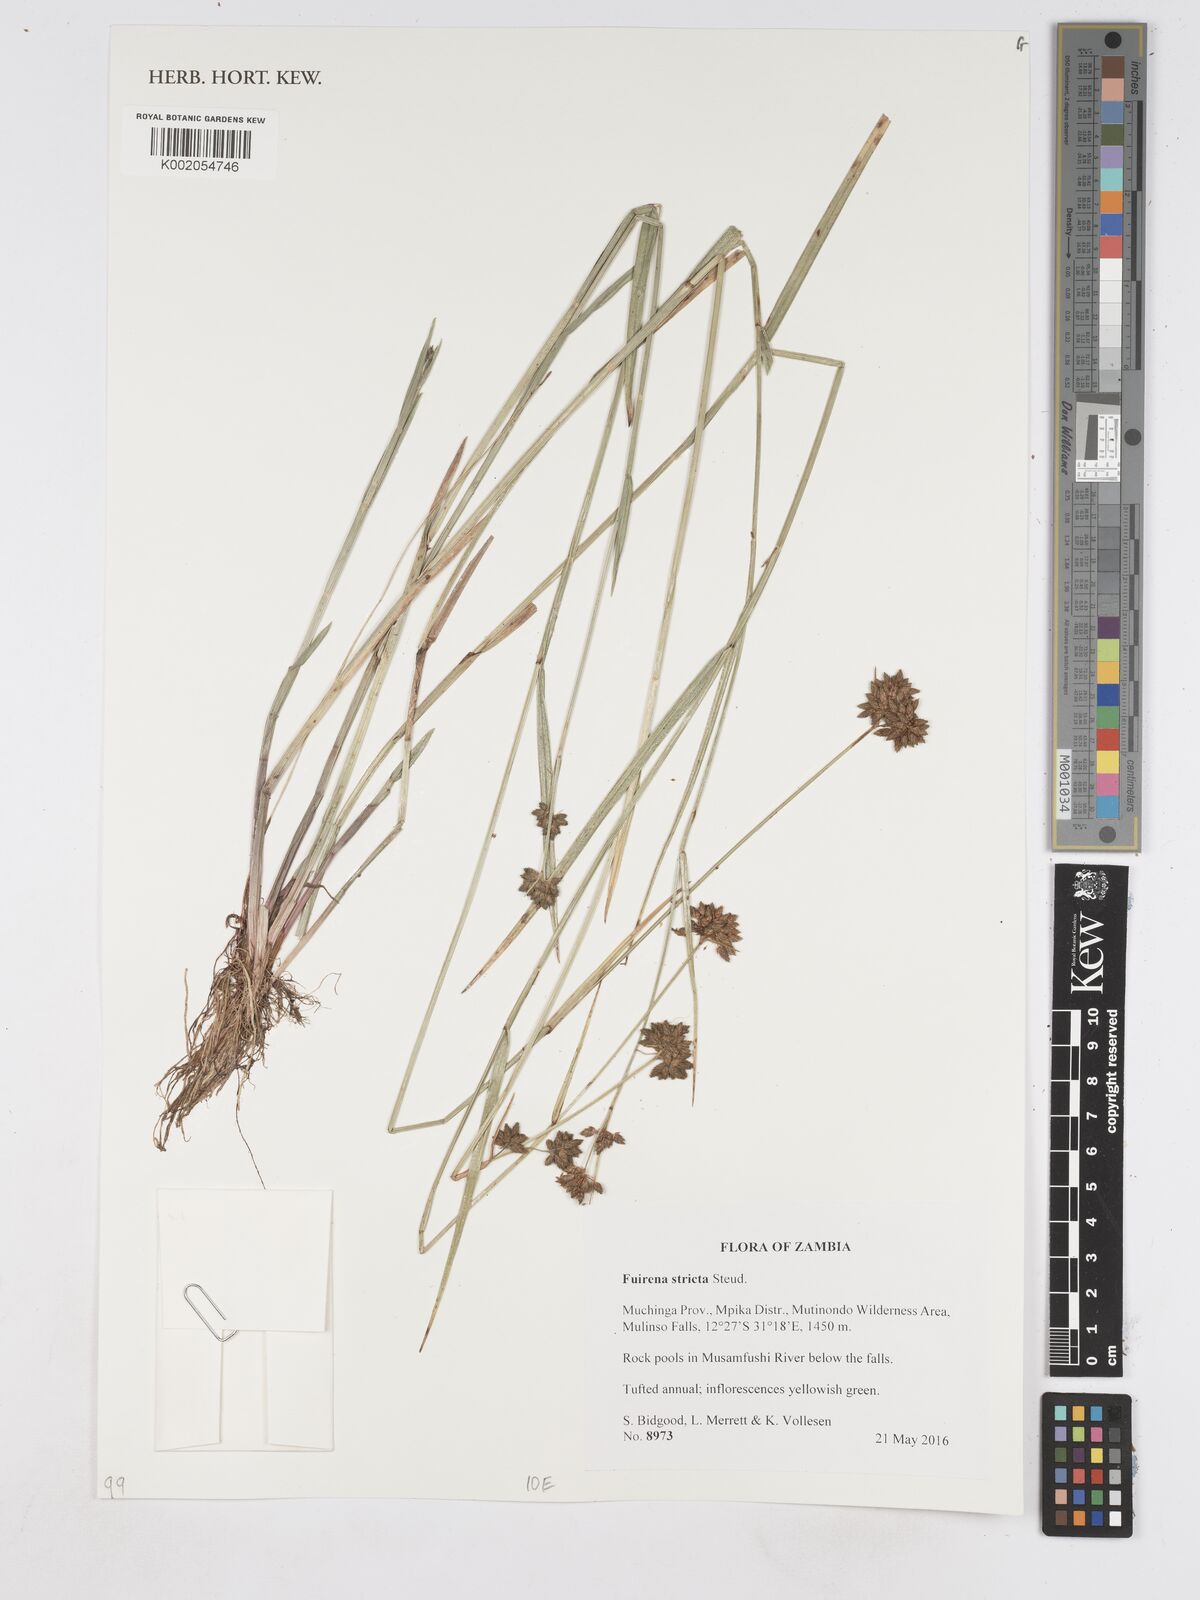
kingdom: Plantae
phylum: Tracheophyta
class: Liliopsida
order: Poales
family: Cyperaceae
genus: Fuirena
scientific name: Fuirena stricta
